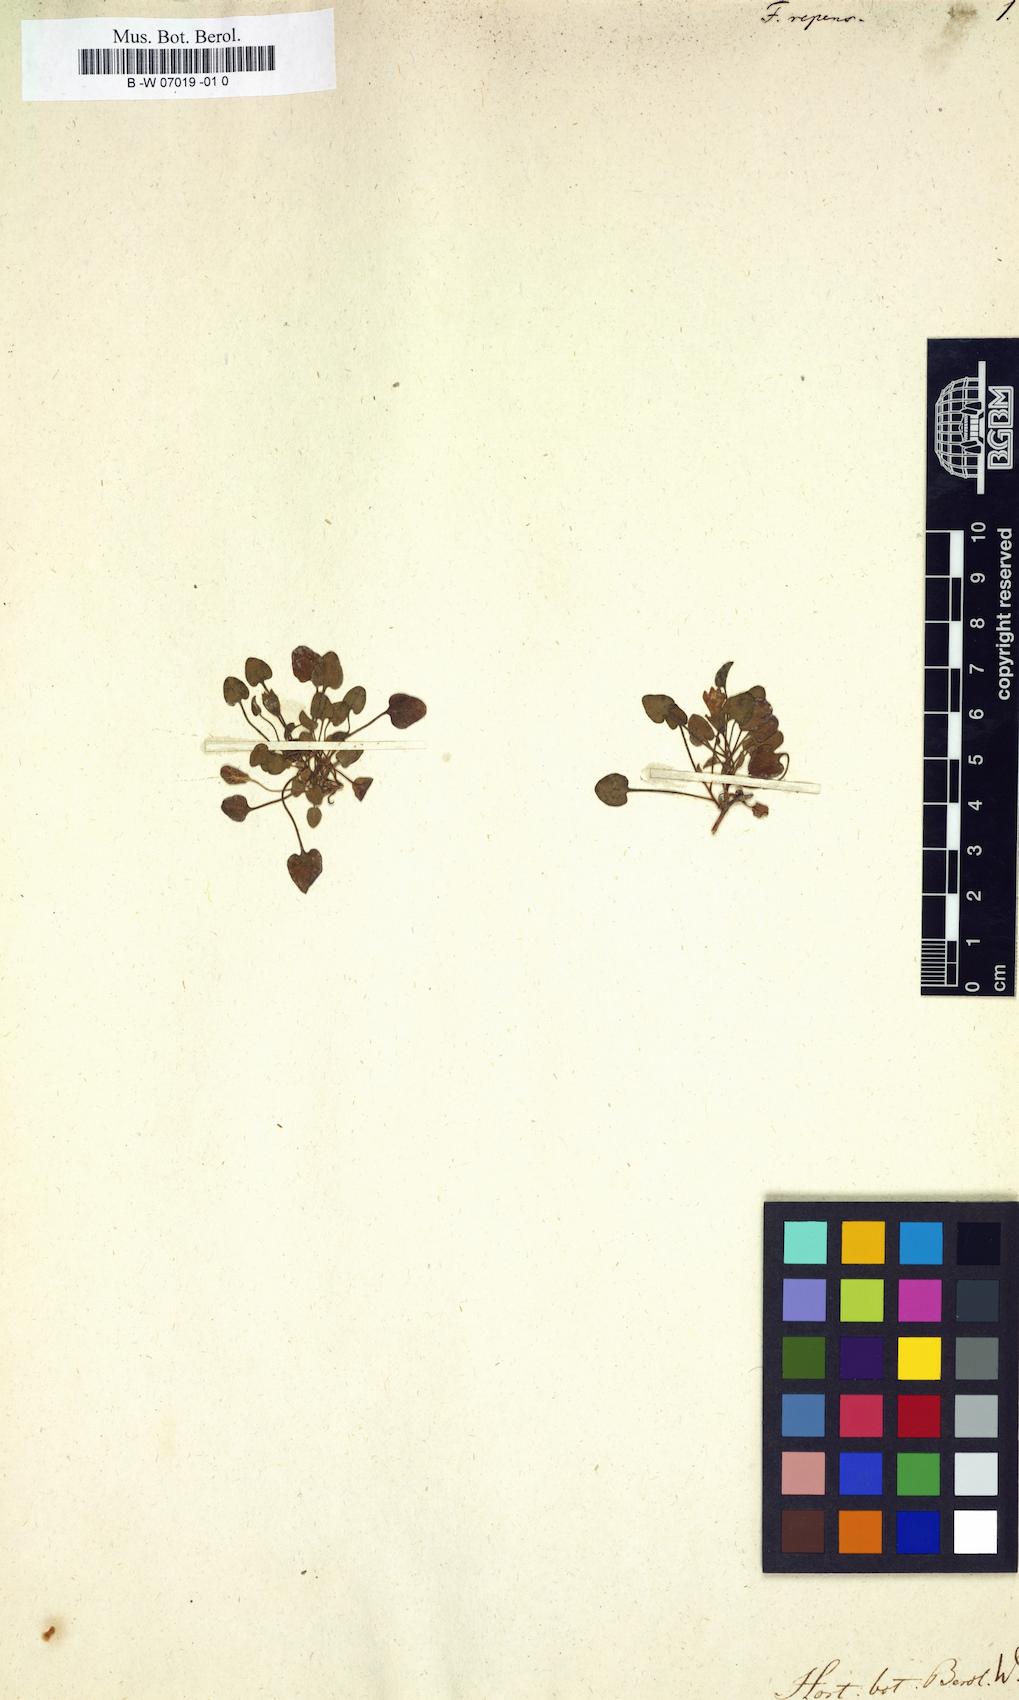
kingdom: Plantae
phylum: Tracheophyta
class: Magnoliopsida
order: Solanales
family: Convolvulaceae
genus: Falkia
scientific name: Falkia repens
